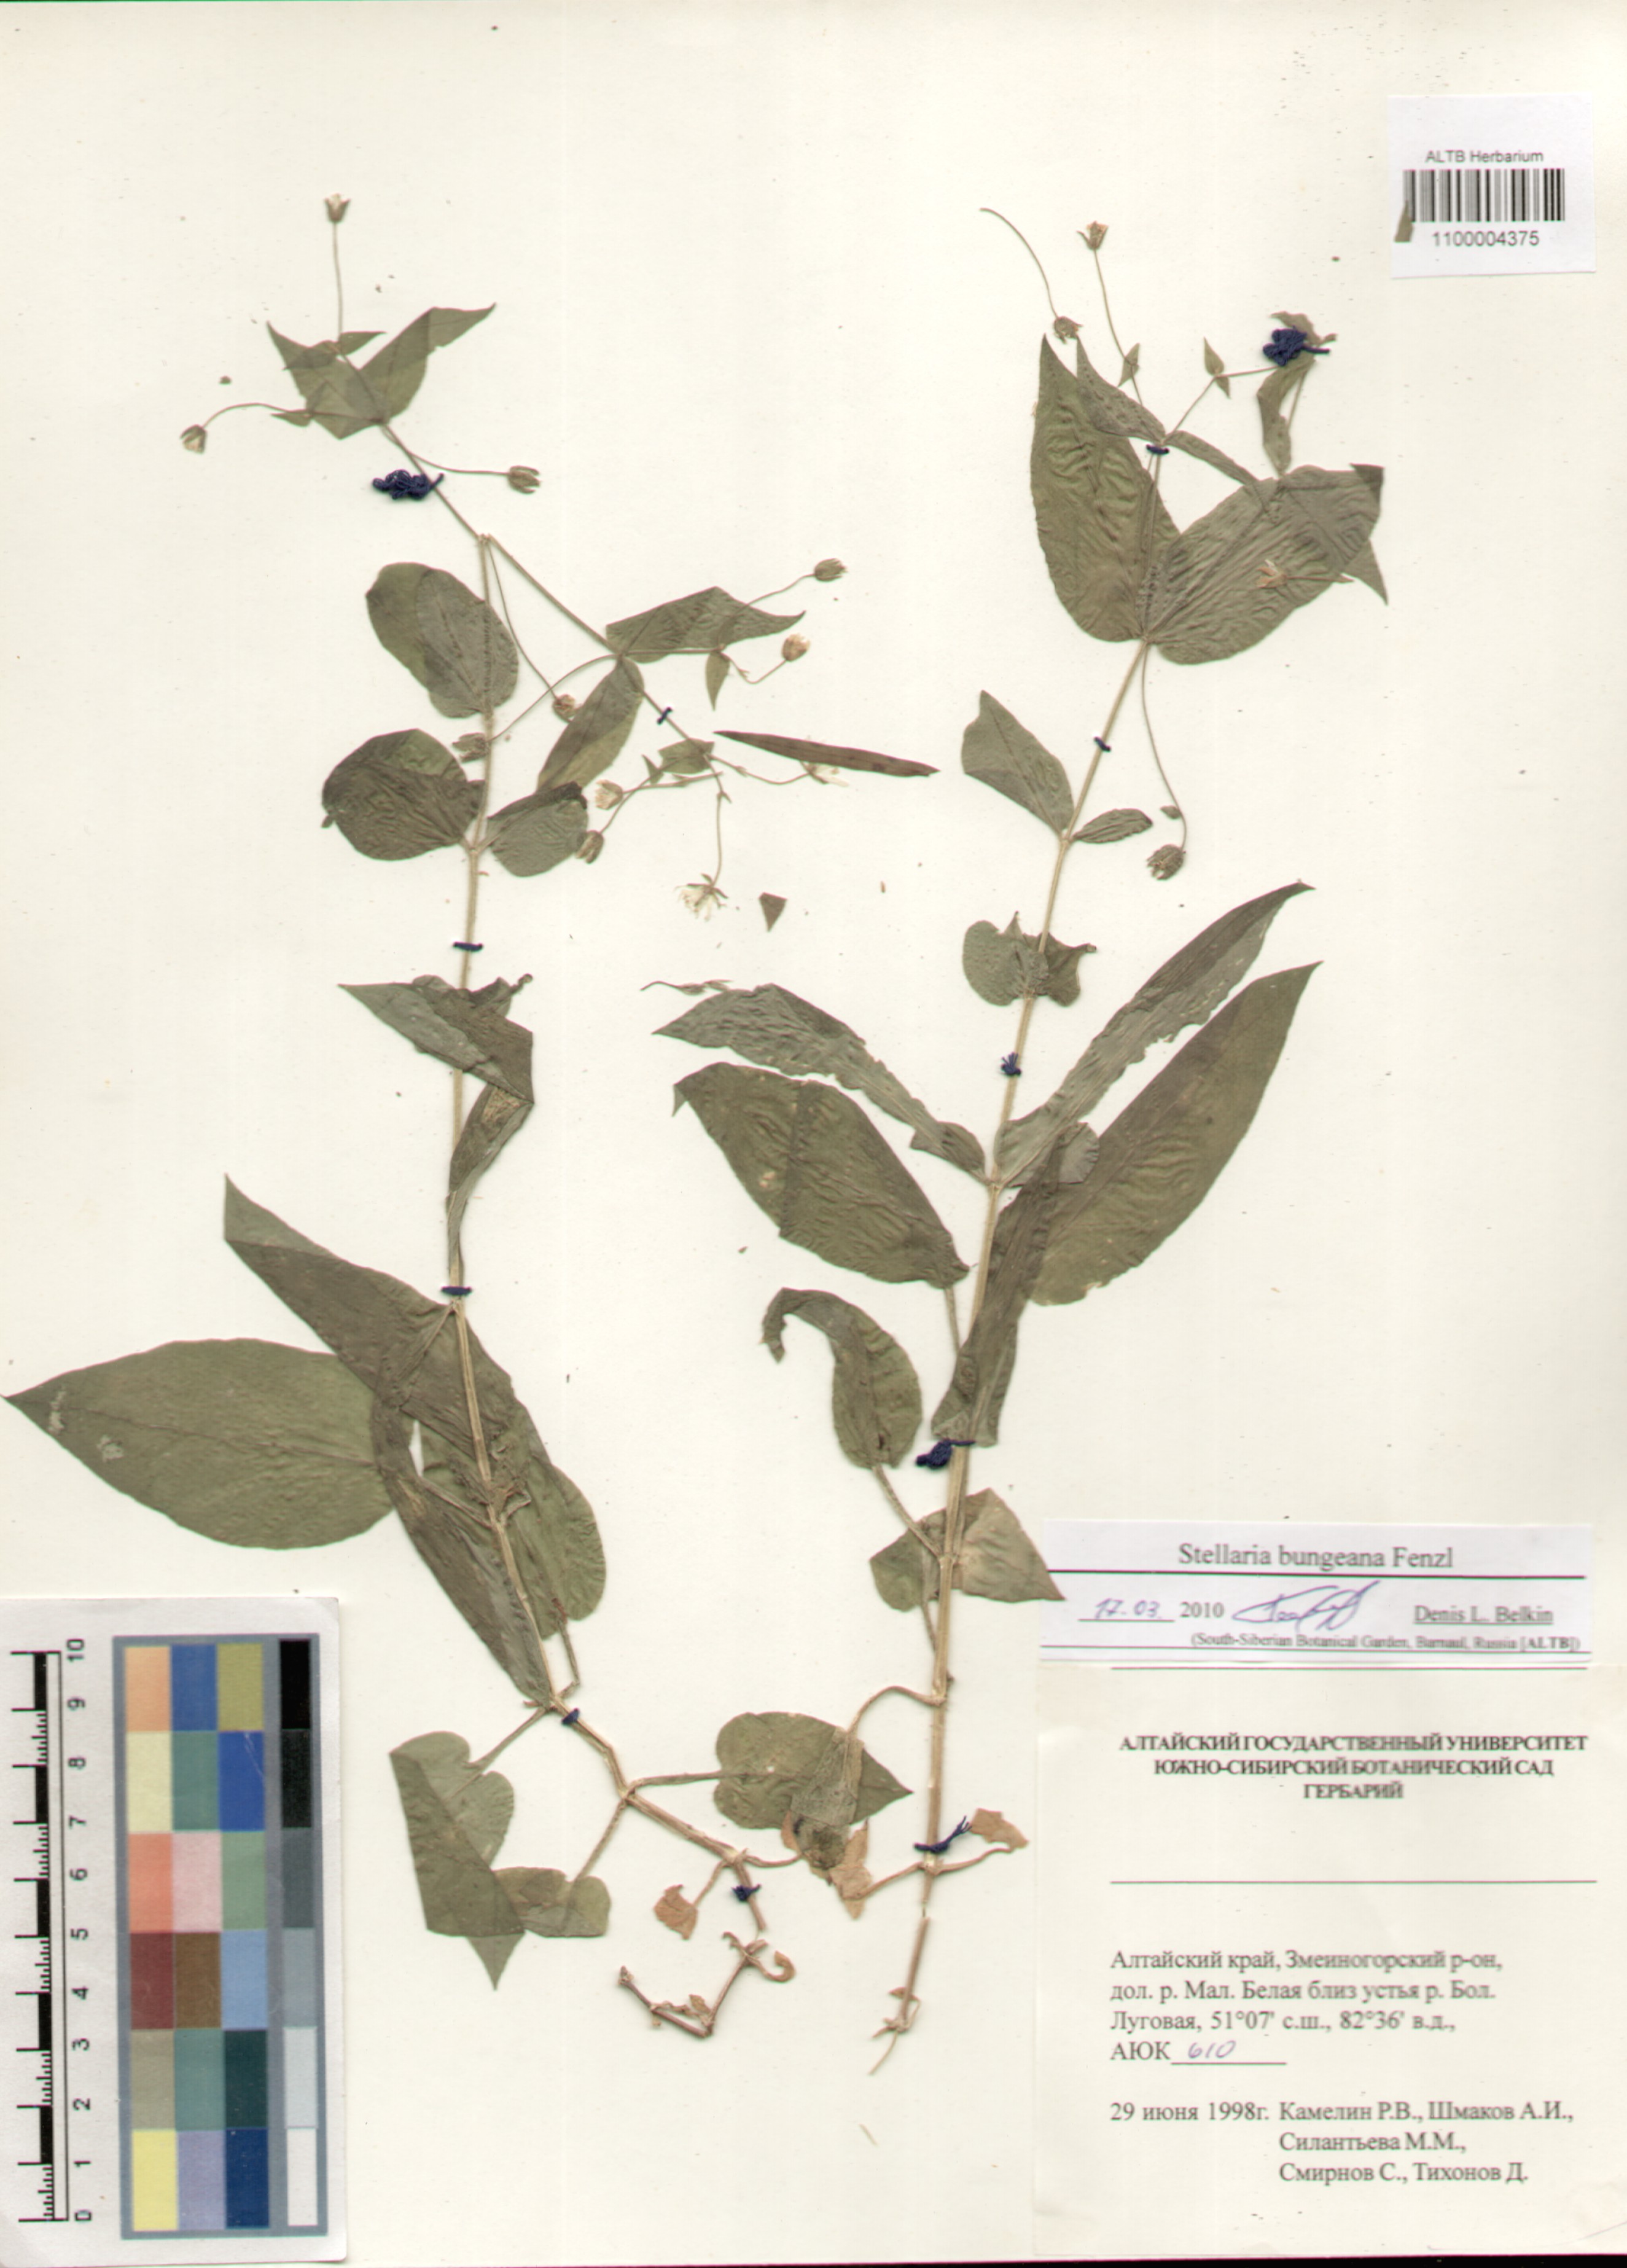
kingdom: Plantae
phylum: Tracheophyta
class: Magnoliopsida
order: Caryophyllales
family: Caryophyllaceae
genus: Stellaria
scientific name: Stellaria bungeana
